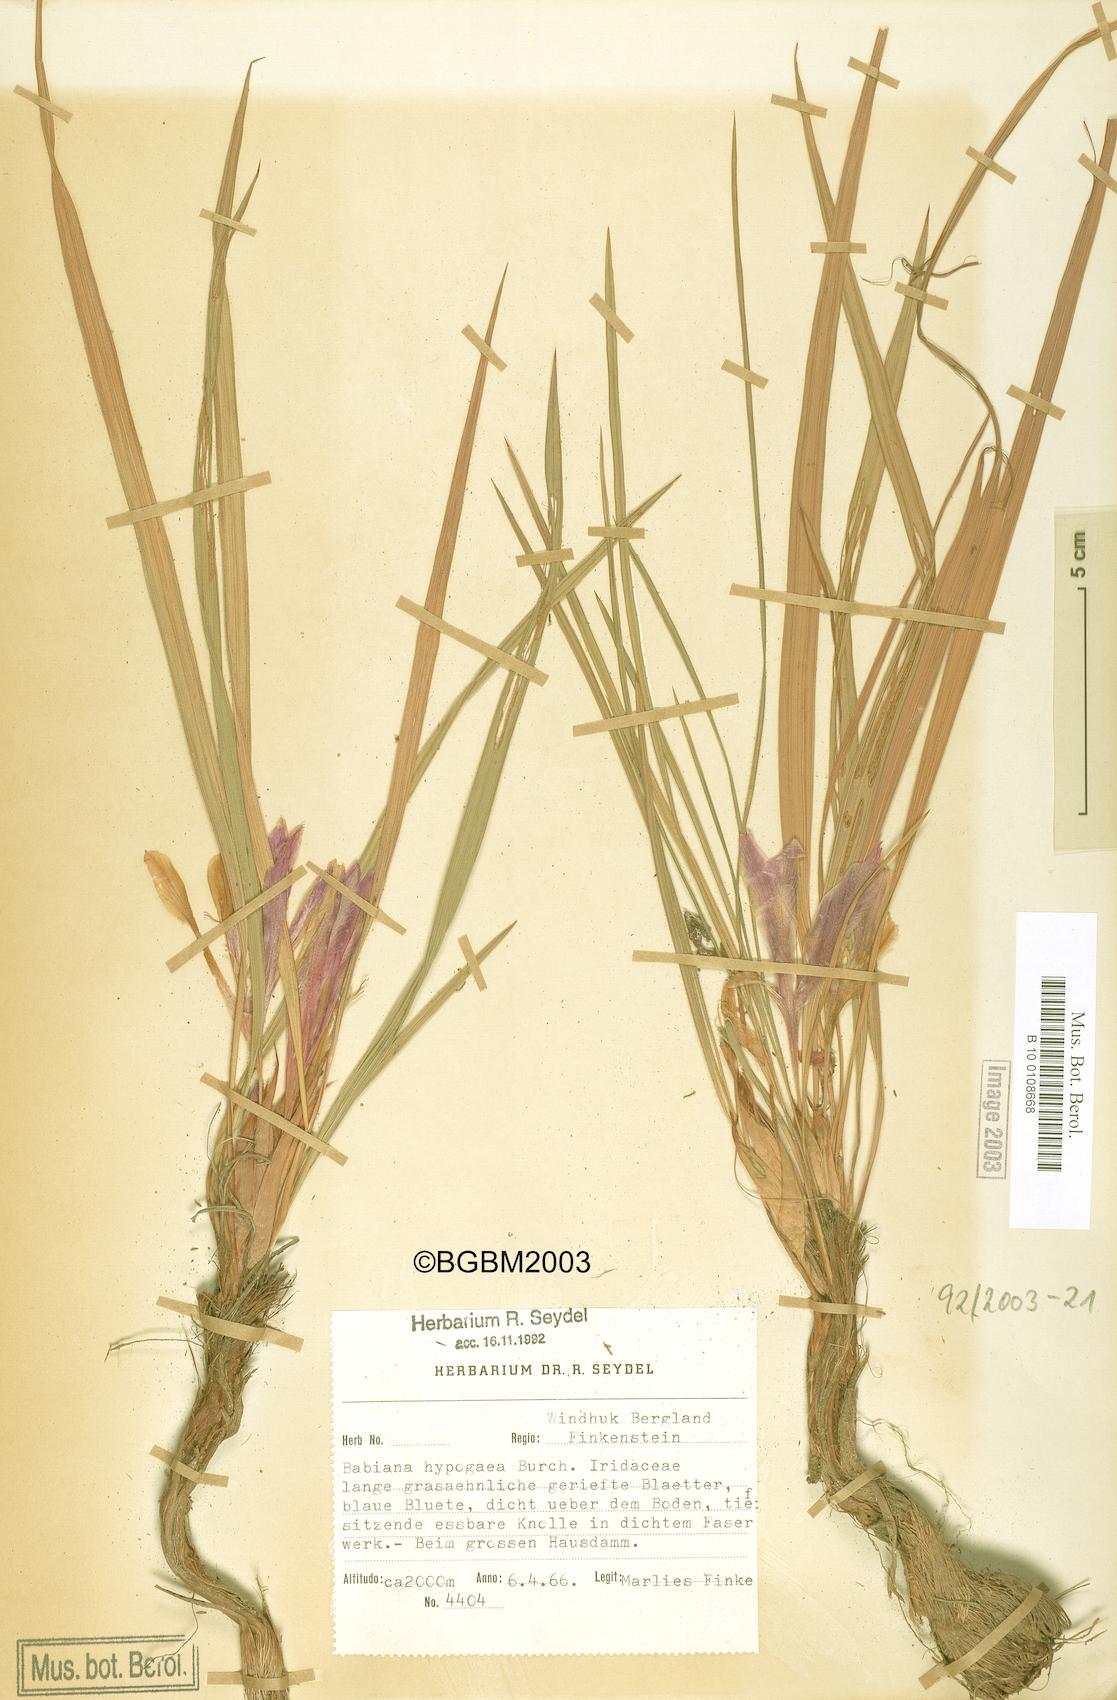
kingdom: Plantae
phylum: Tracheophyta
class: Liliopsida
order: Asparagales
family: Iridaceae
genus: Babiana
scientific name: Babiana hypogaea
